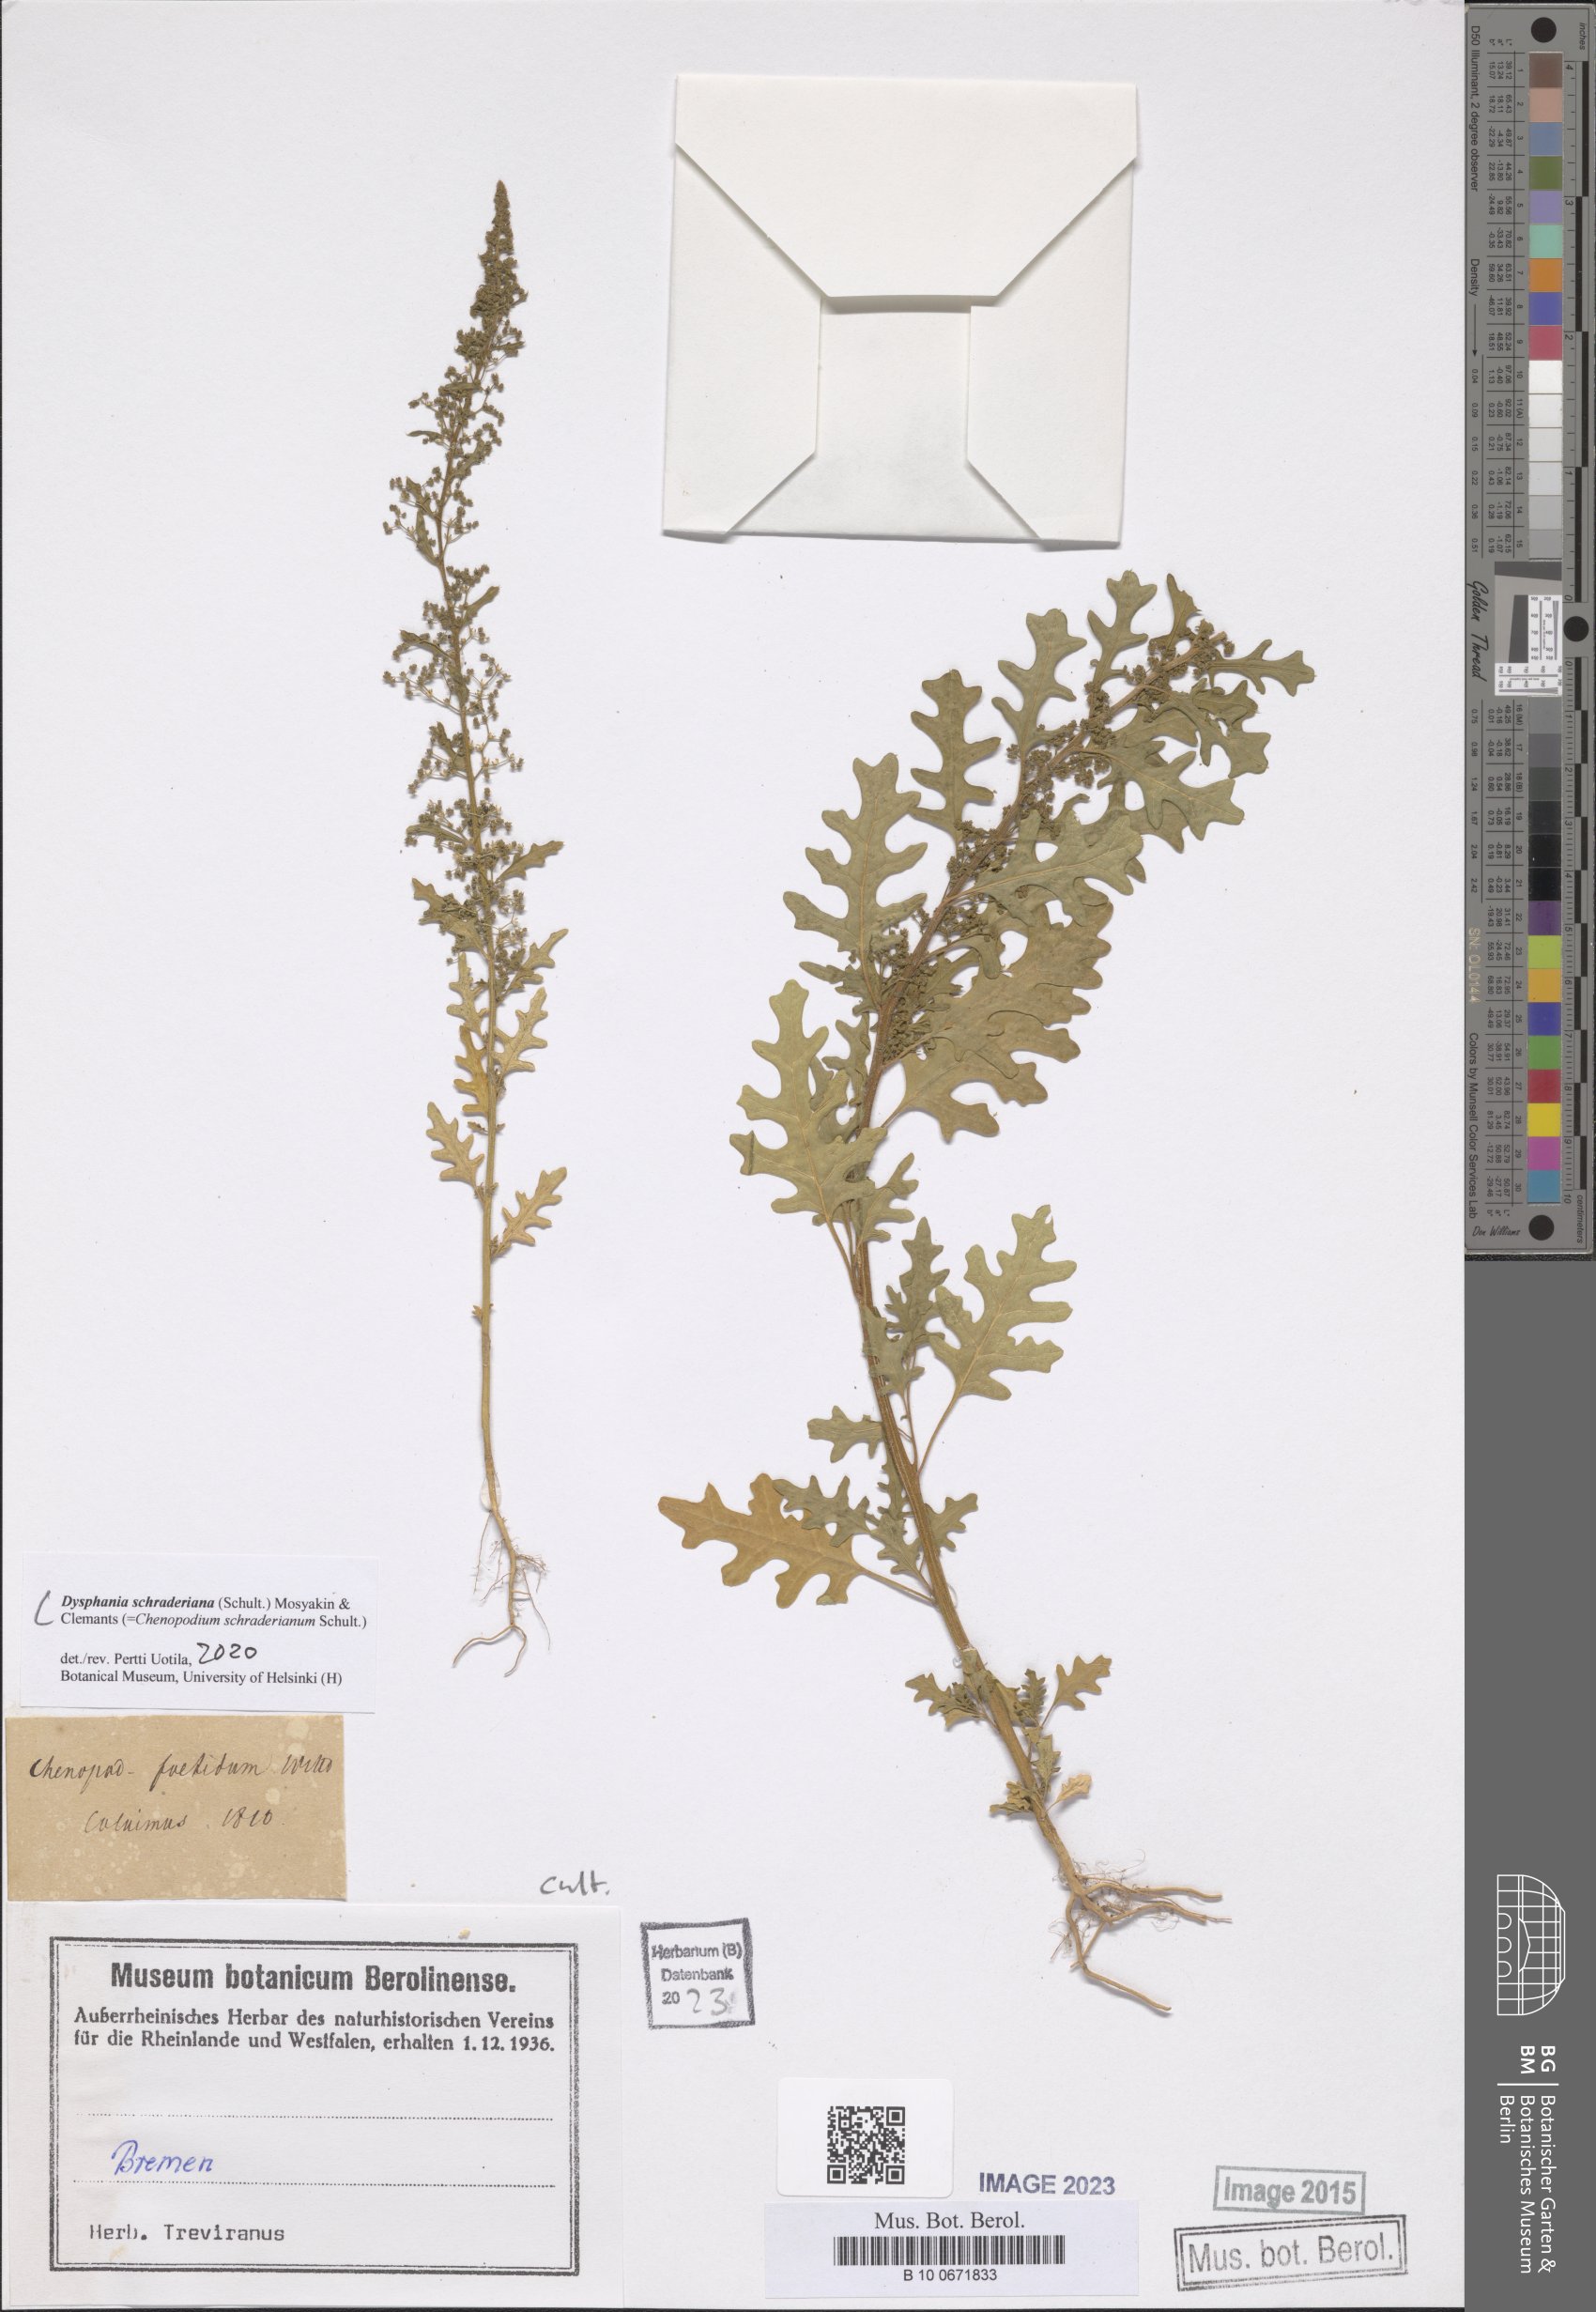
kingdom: Plantae
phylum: Tracheophyta
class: Magnoliopsida
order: Caryophyllales
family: Amaranthaceae
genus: Dysphania
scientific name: Dysphania schraderiana
